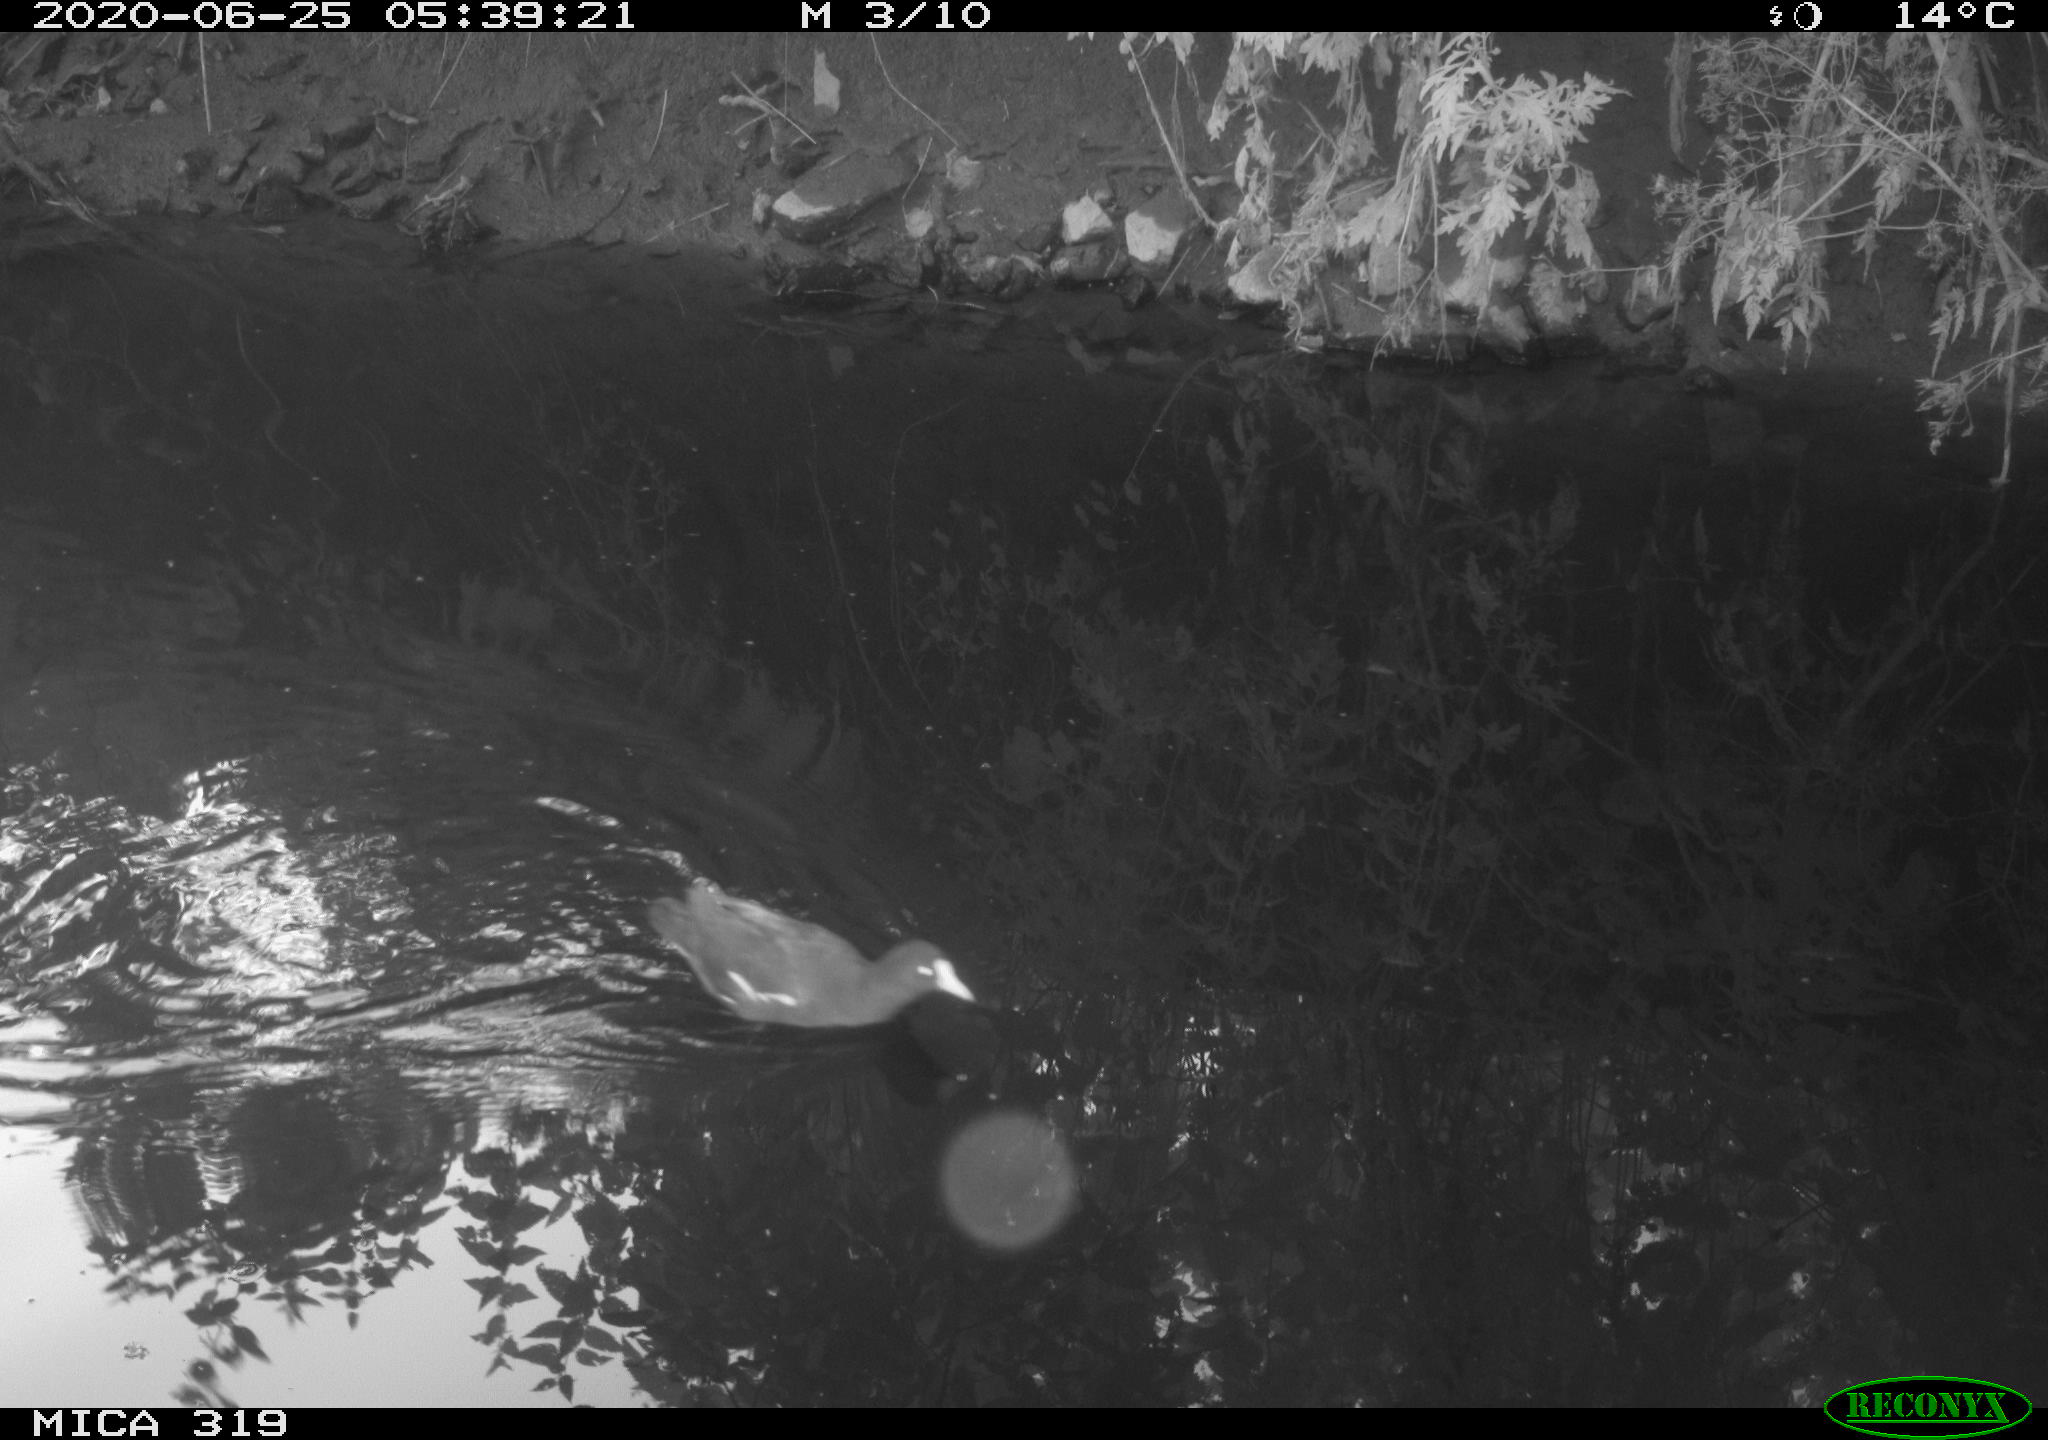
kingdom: Animalia
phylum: Chordata
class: Aves
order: Gruiformes
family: Rallidae
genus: Gallinula
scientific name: Gallinula chloropus
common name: Common moorhen
